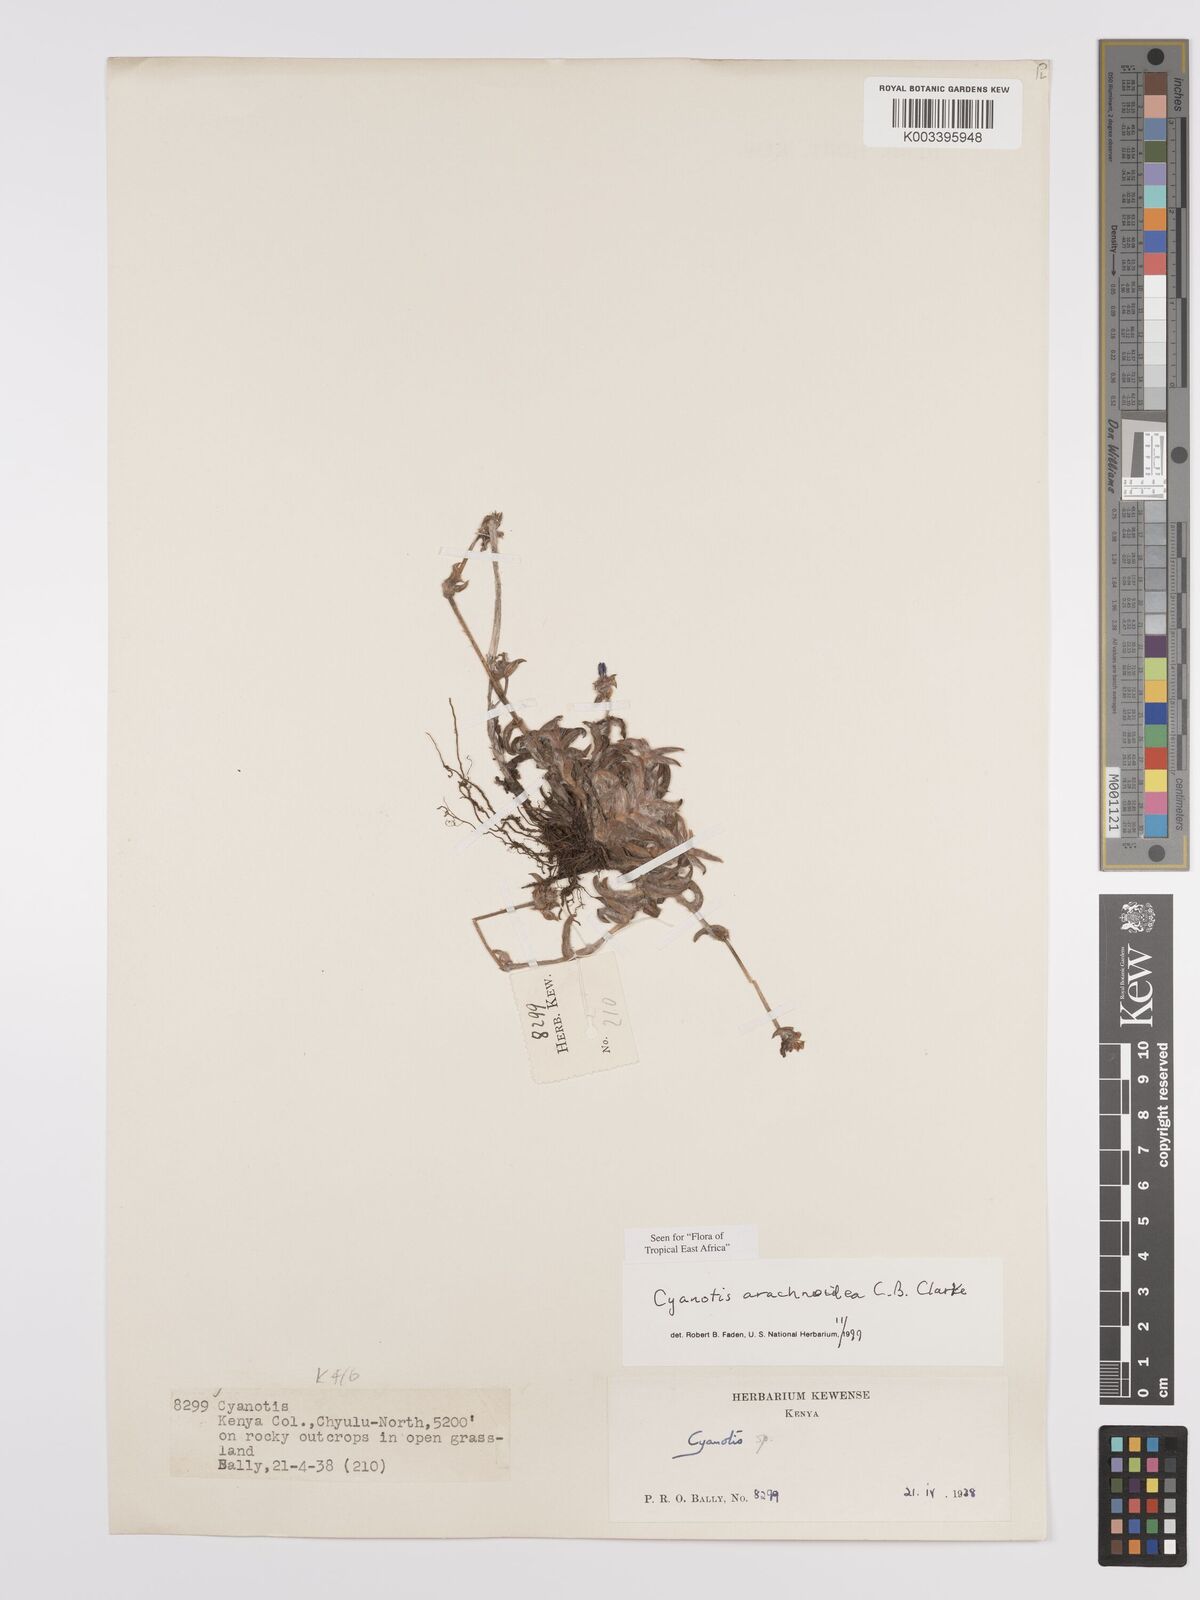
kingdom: Plantae
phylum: Tracheophyta
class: Liliopsida
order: Commelinales
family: Commelinaceae
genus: Cyanotis
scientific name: Cyanotis arachnoidea
